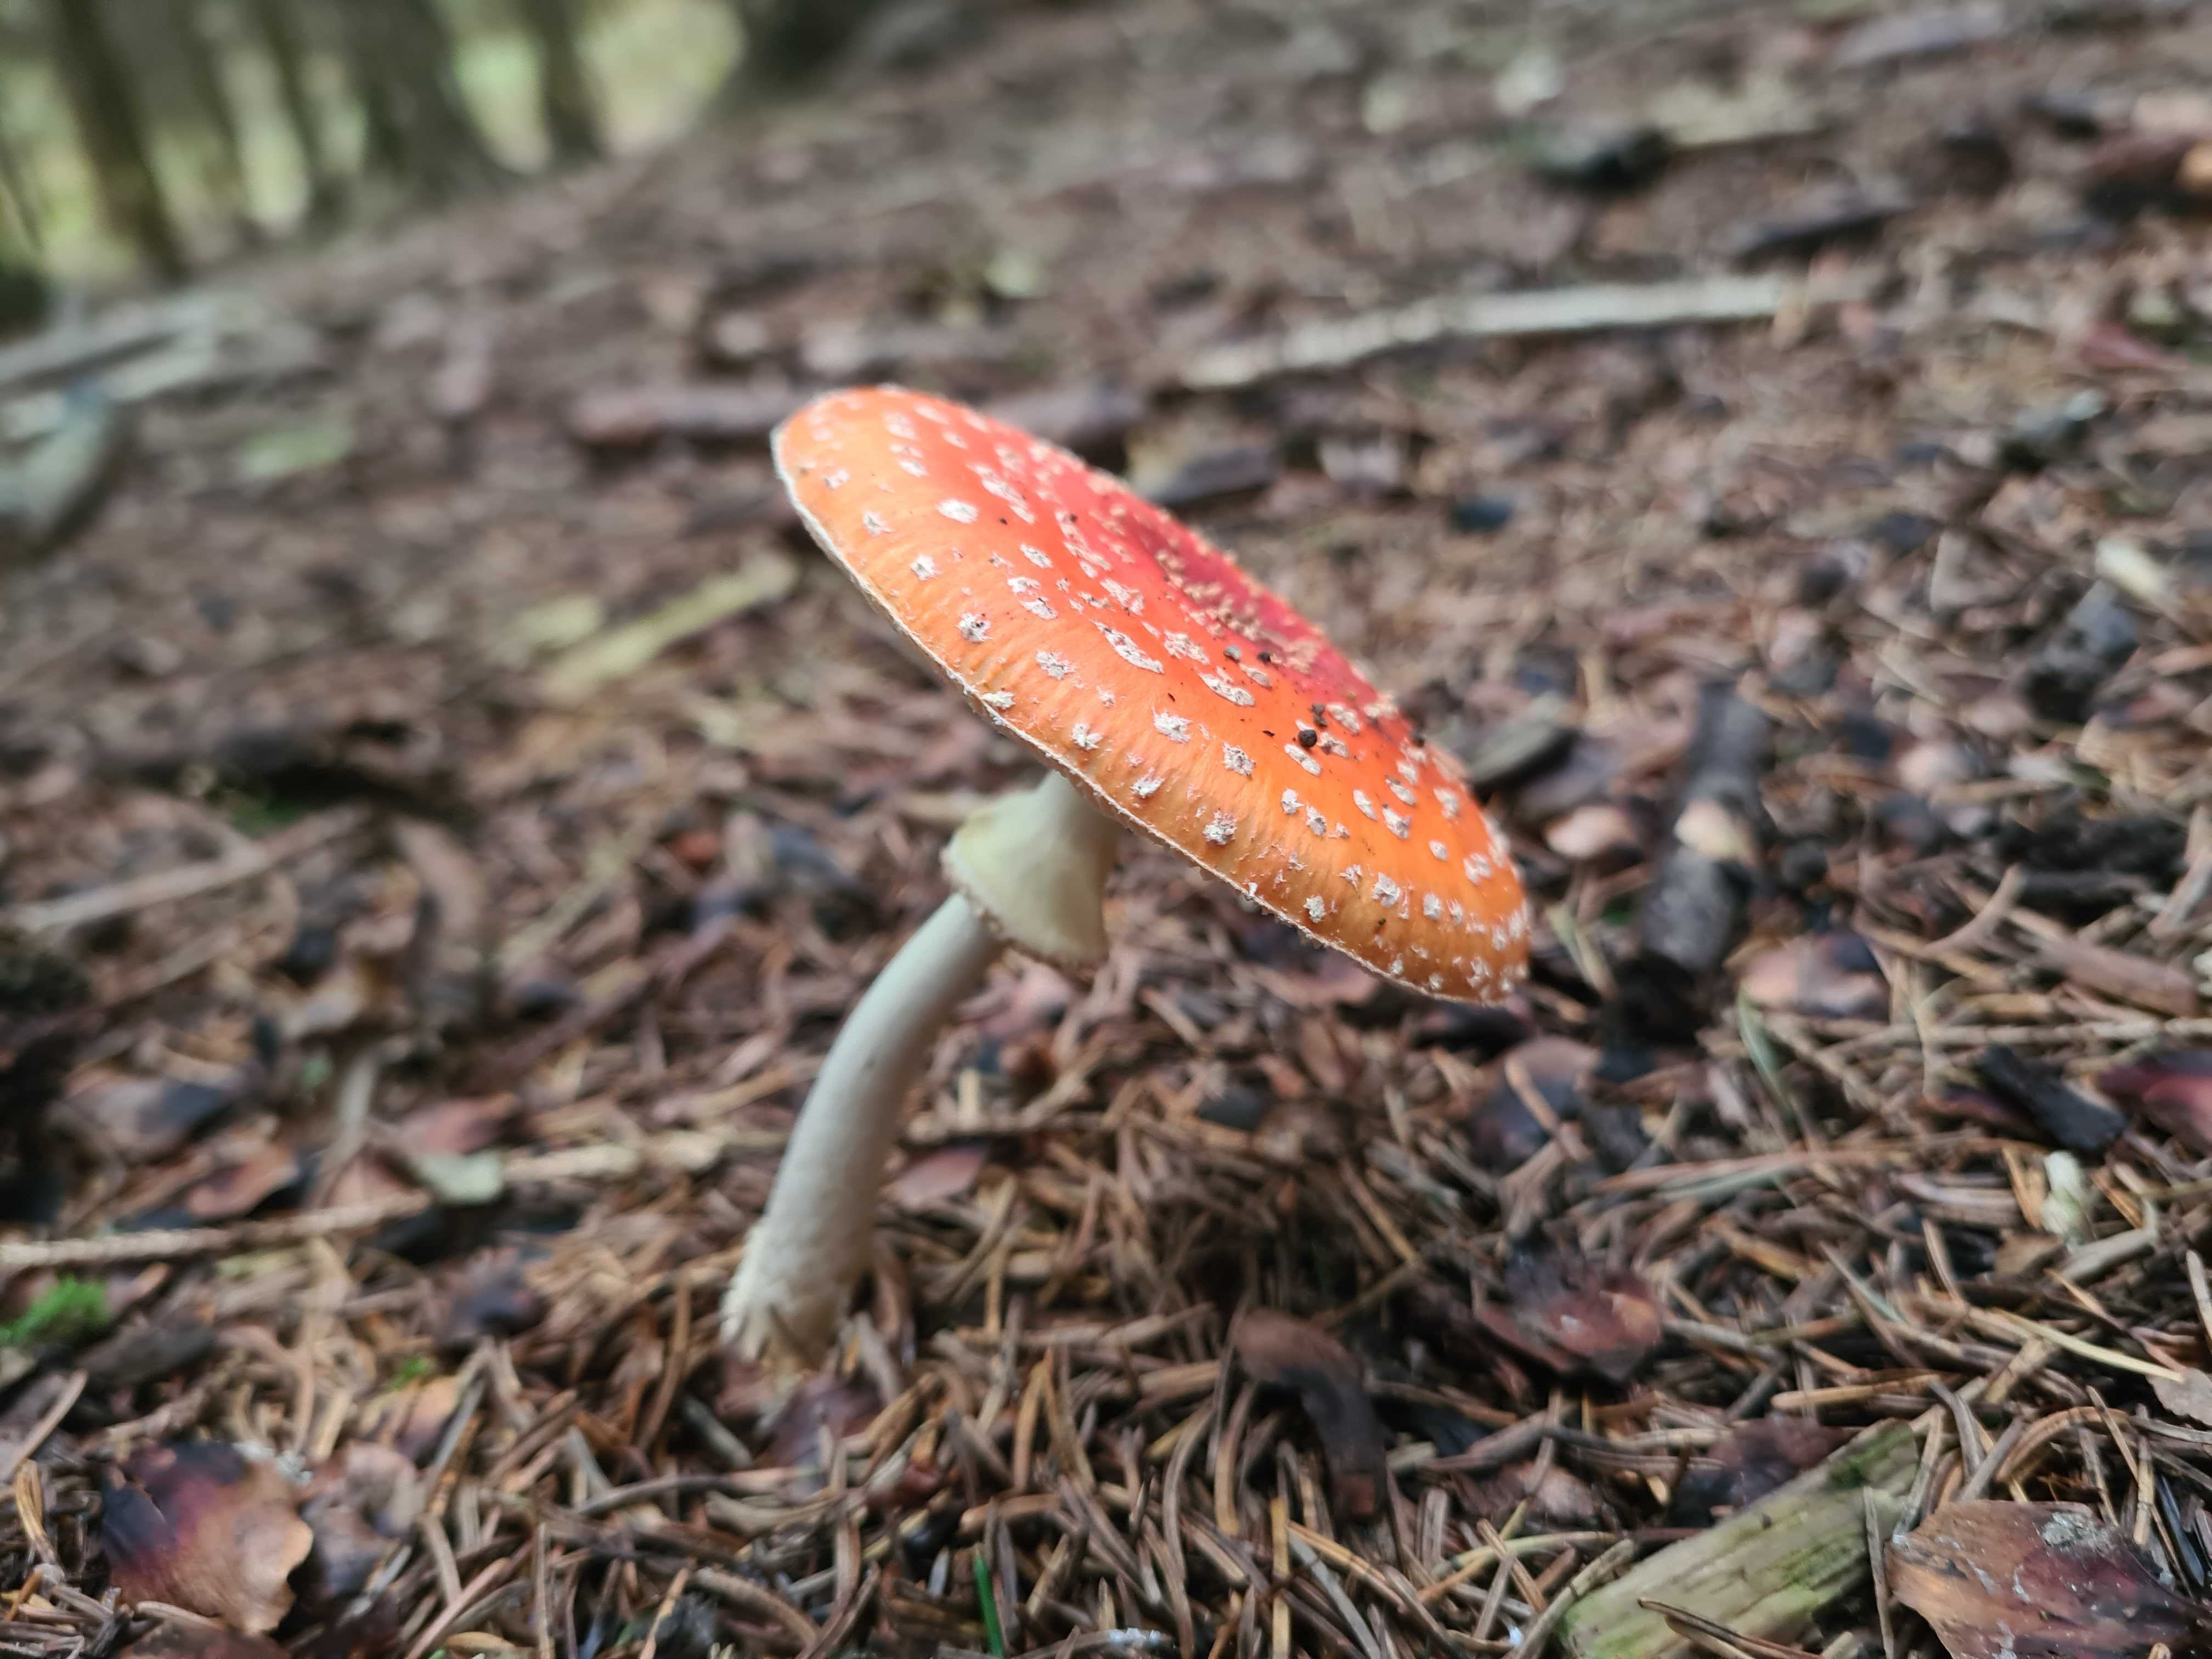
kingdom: Fungi
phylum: Basidiomycota
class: Agaricomycetes
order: Agaricales
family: Amanitaceae
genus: Amanita
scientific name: Amanita muscaria
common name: rød fluesvamp
